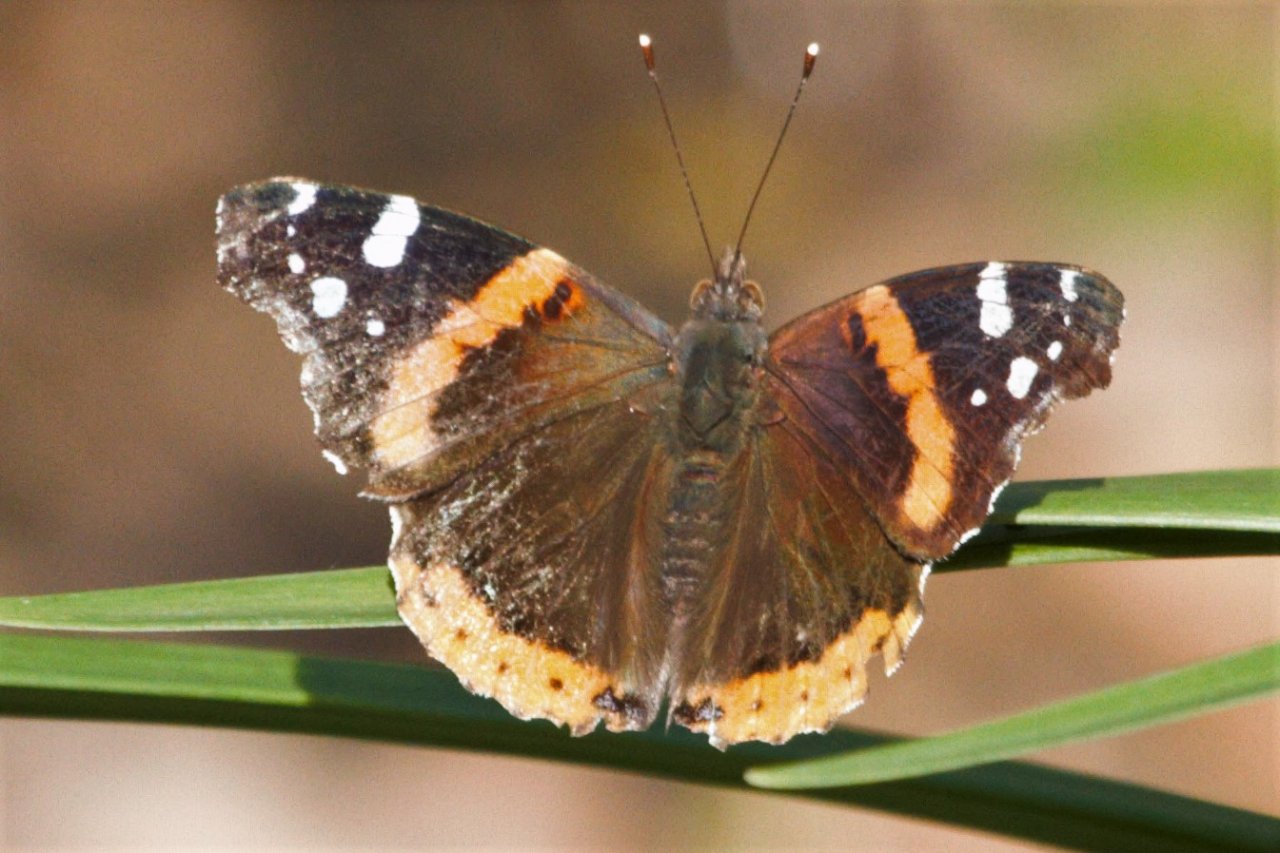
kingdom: Animalia
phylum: Arthropoda
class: Insecta
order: Lepidoptera
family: Nymphalidae
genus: Vanessa
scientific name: Vanessa atalanta
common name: Red Admiral
